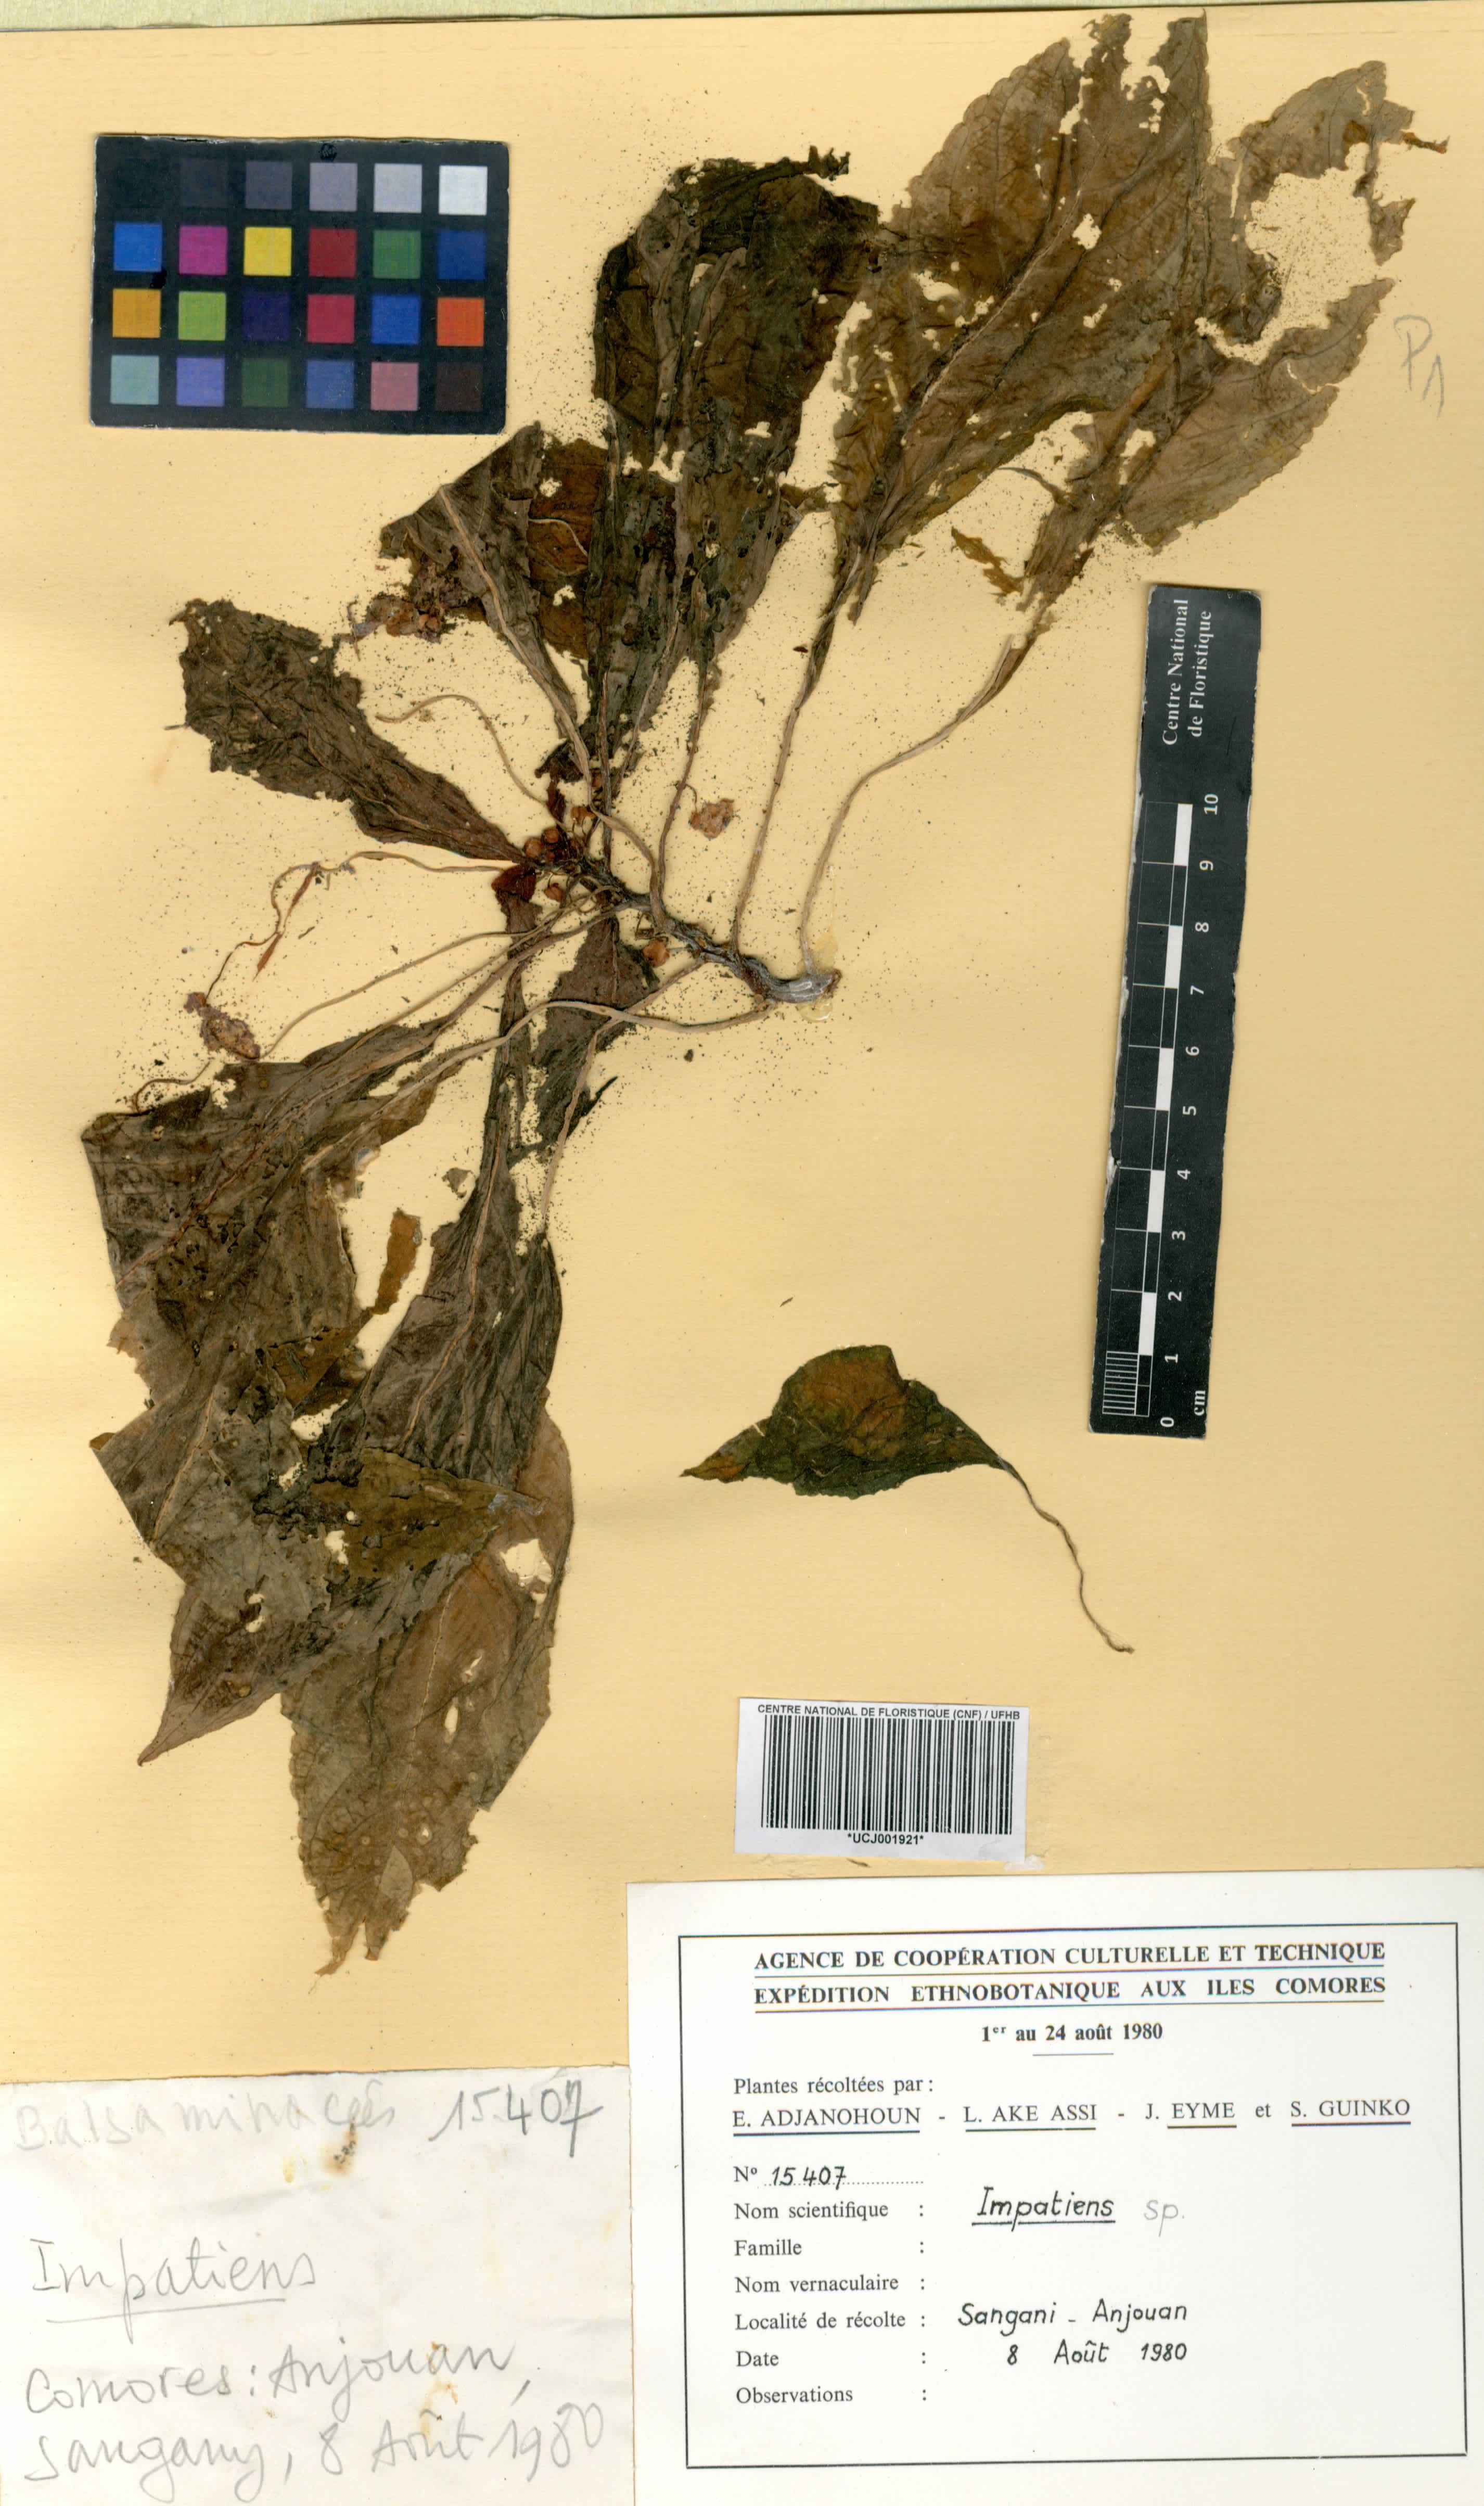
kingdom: Plantae
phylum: Tracheophyta
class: Magnoliopsida
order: Ericales
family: Balsaminaceae
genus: Impatiens
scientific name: Impatiens
